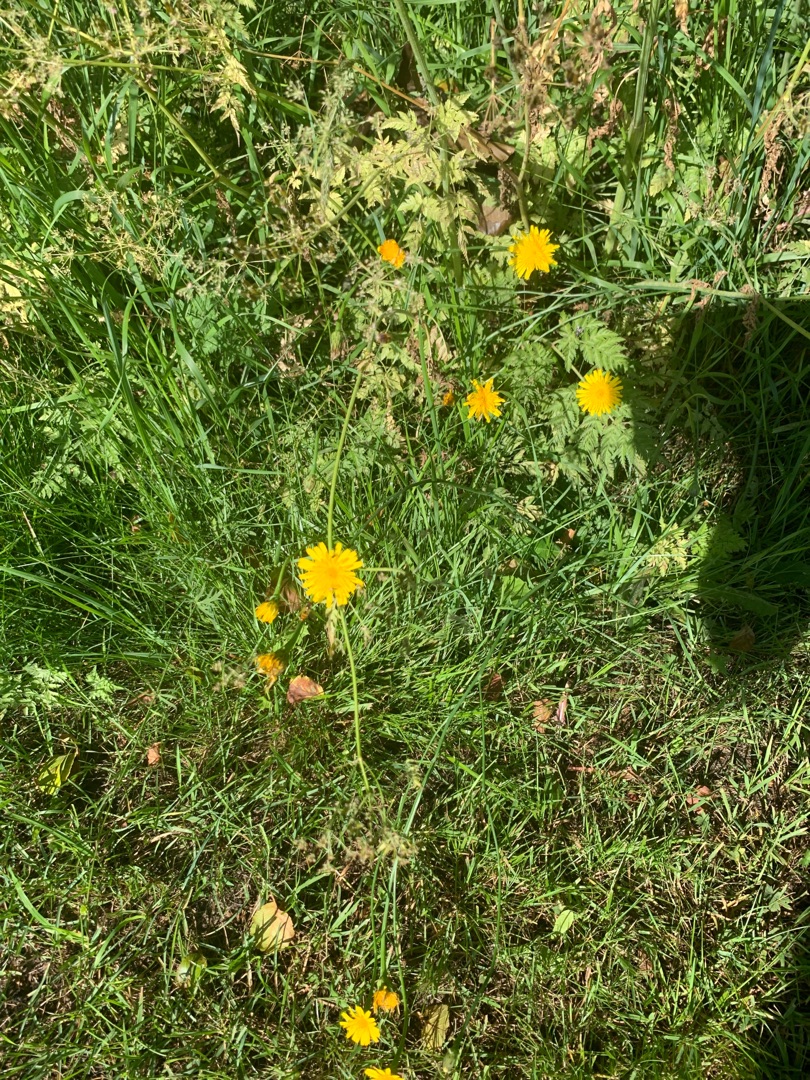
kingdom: Plantae
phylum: Tracheophyta
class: Magnoliopsida
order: Asterales
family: Asteraceae
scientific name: Asteraceae
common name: Kurvblomstfamilien
